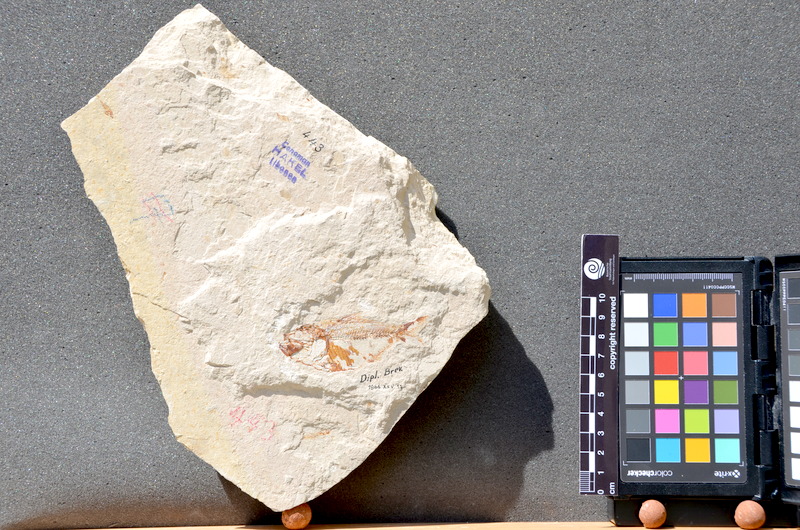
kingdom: Animalia
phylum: Chordata
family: Pycnodontes
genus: Palaeobalistum
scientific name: Palaeobalistum goedelii
